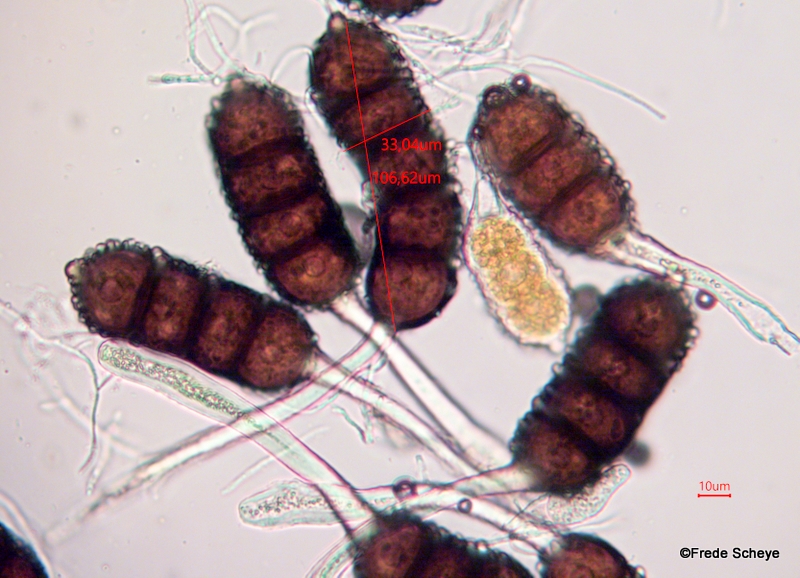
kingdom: Fungi
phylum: Basidiomycota
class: Pucciniomycetes
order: Pucciniales
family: Phragmidiaceae
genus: Phragmidium
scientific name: Phragmidium violaceum
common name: violet flercellerust
